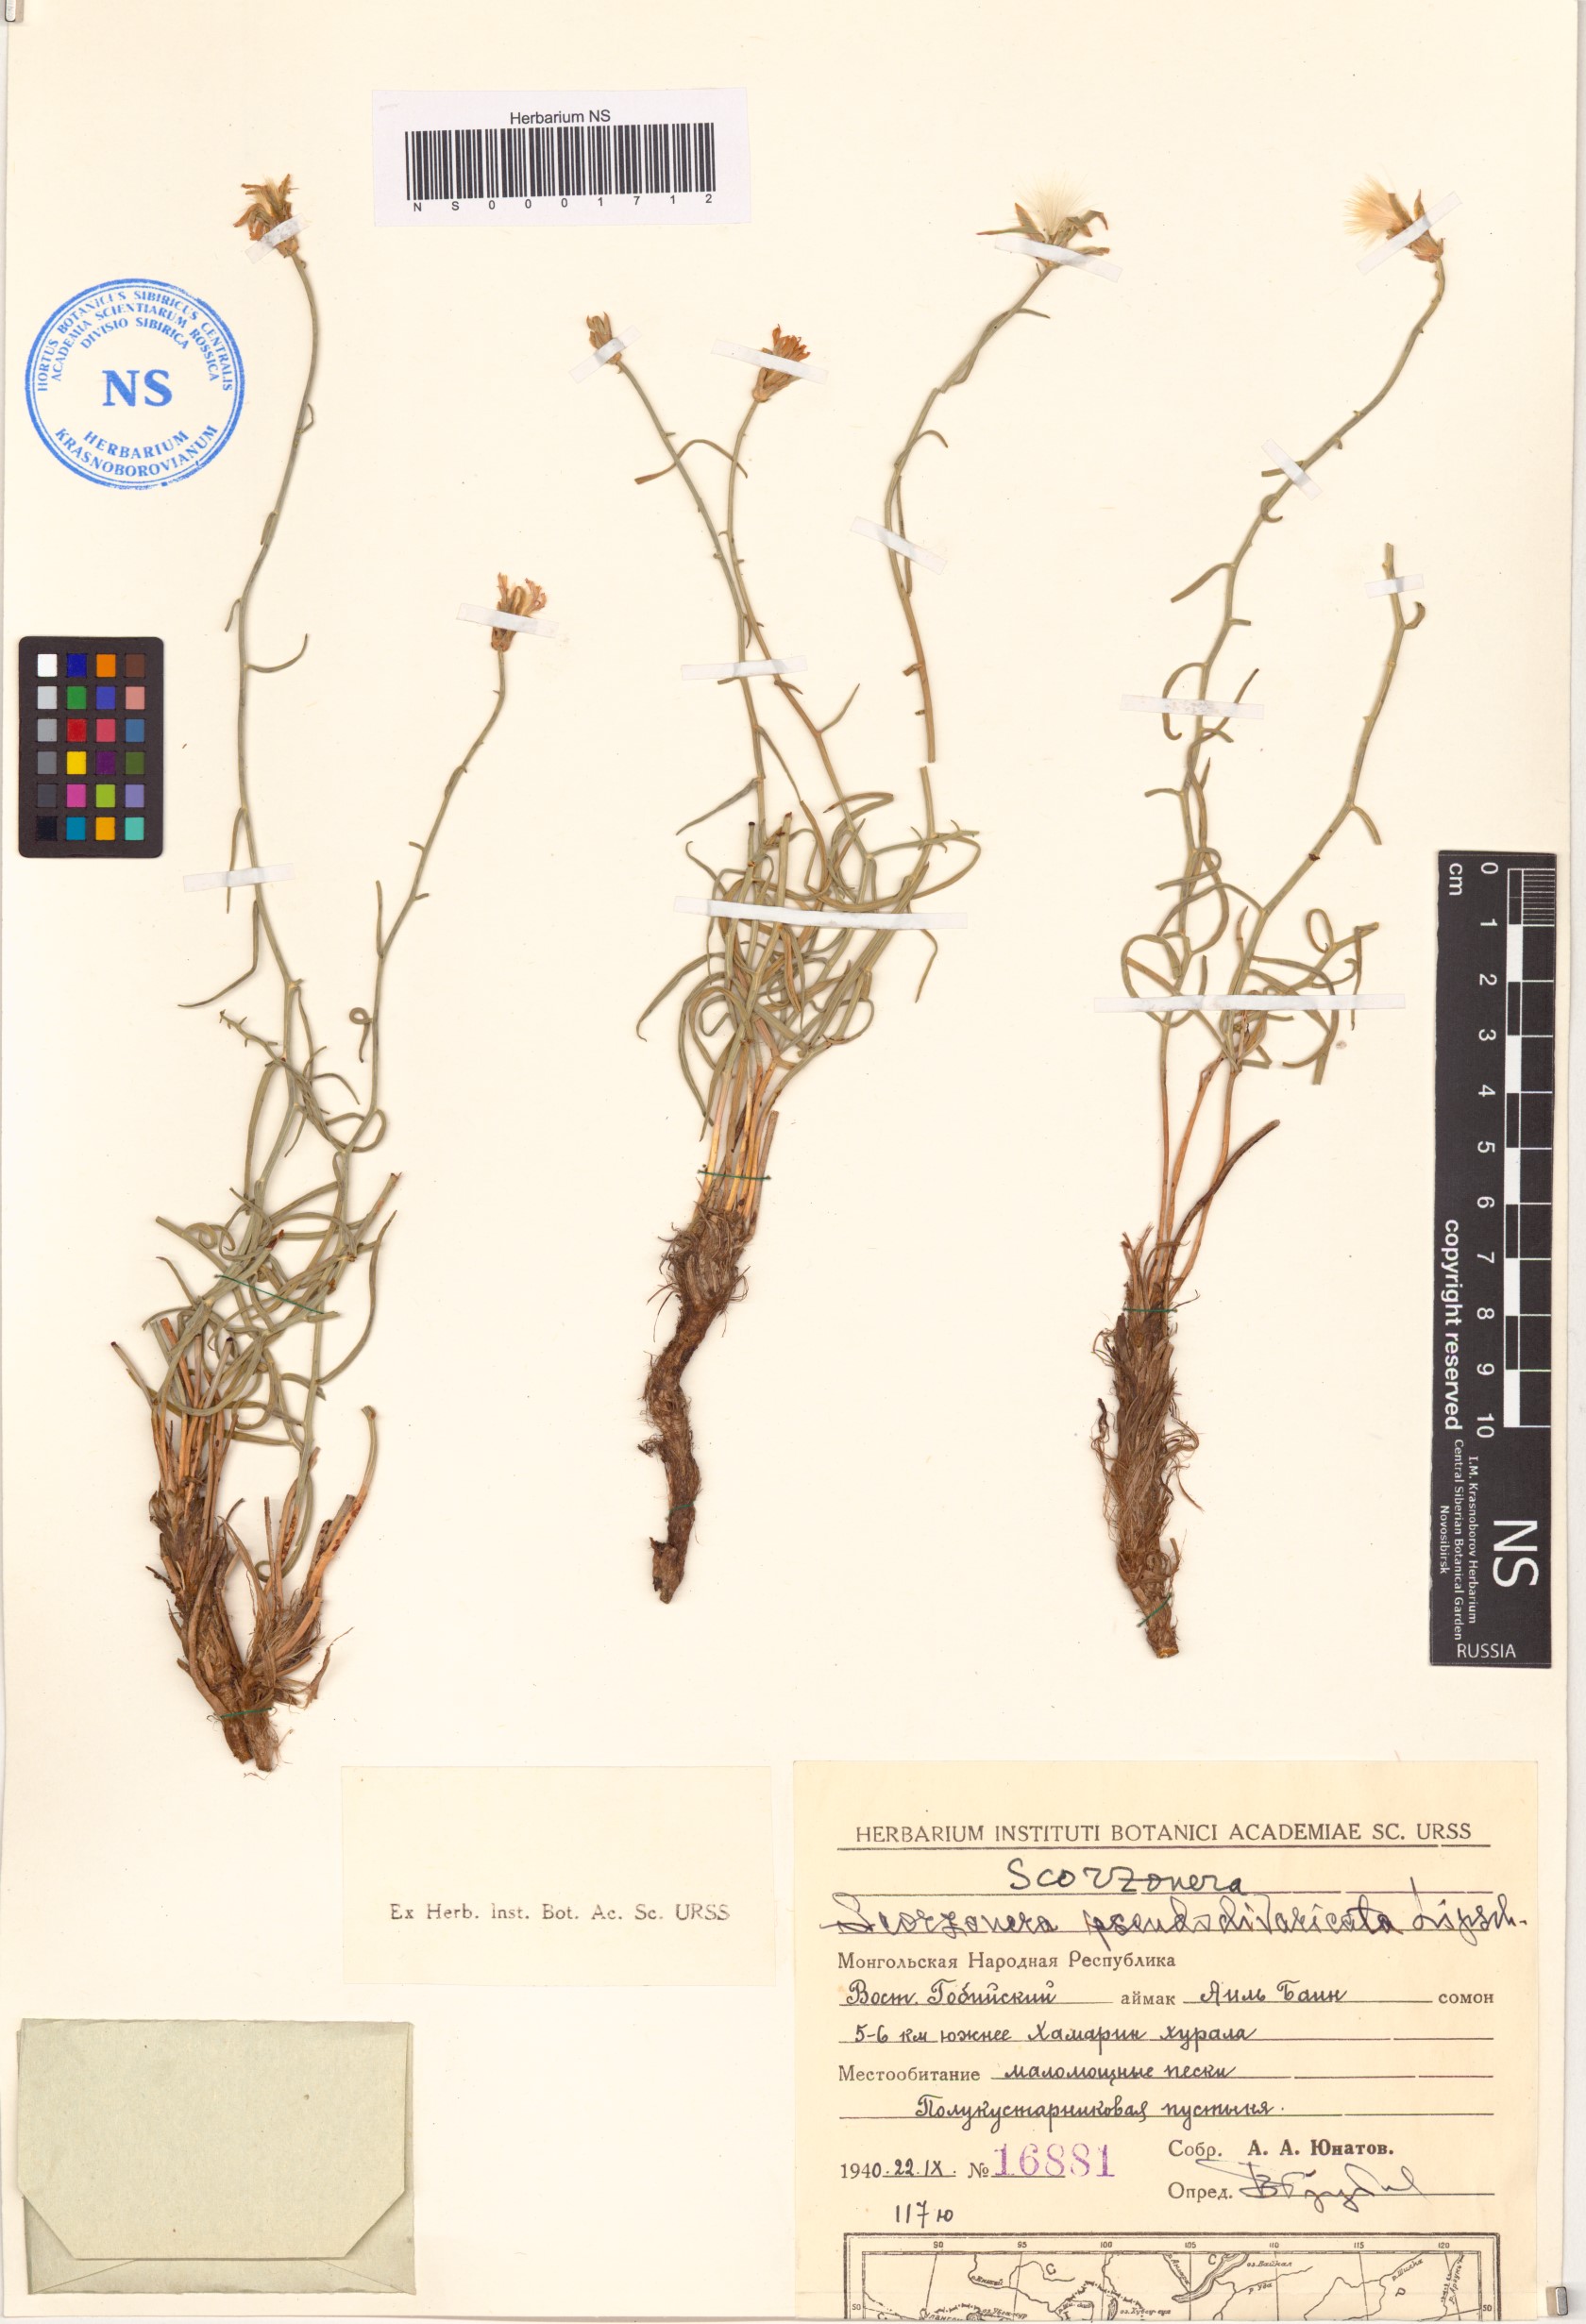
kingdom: Plantae
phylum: Tracheophyta
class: Magnoliopsida
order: Asterales
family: Asteraceae
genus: Takhtajaniantha
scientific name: Takhtajaniantha pseudodivaricata
